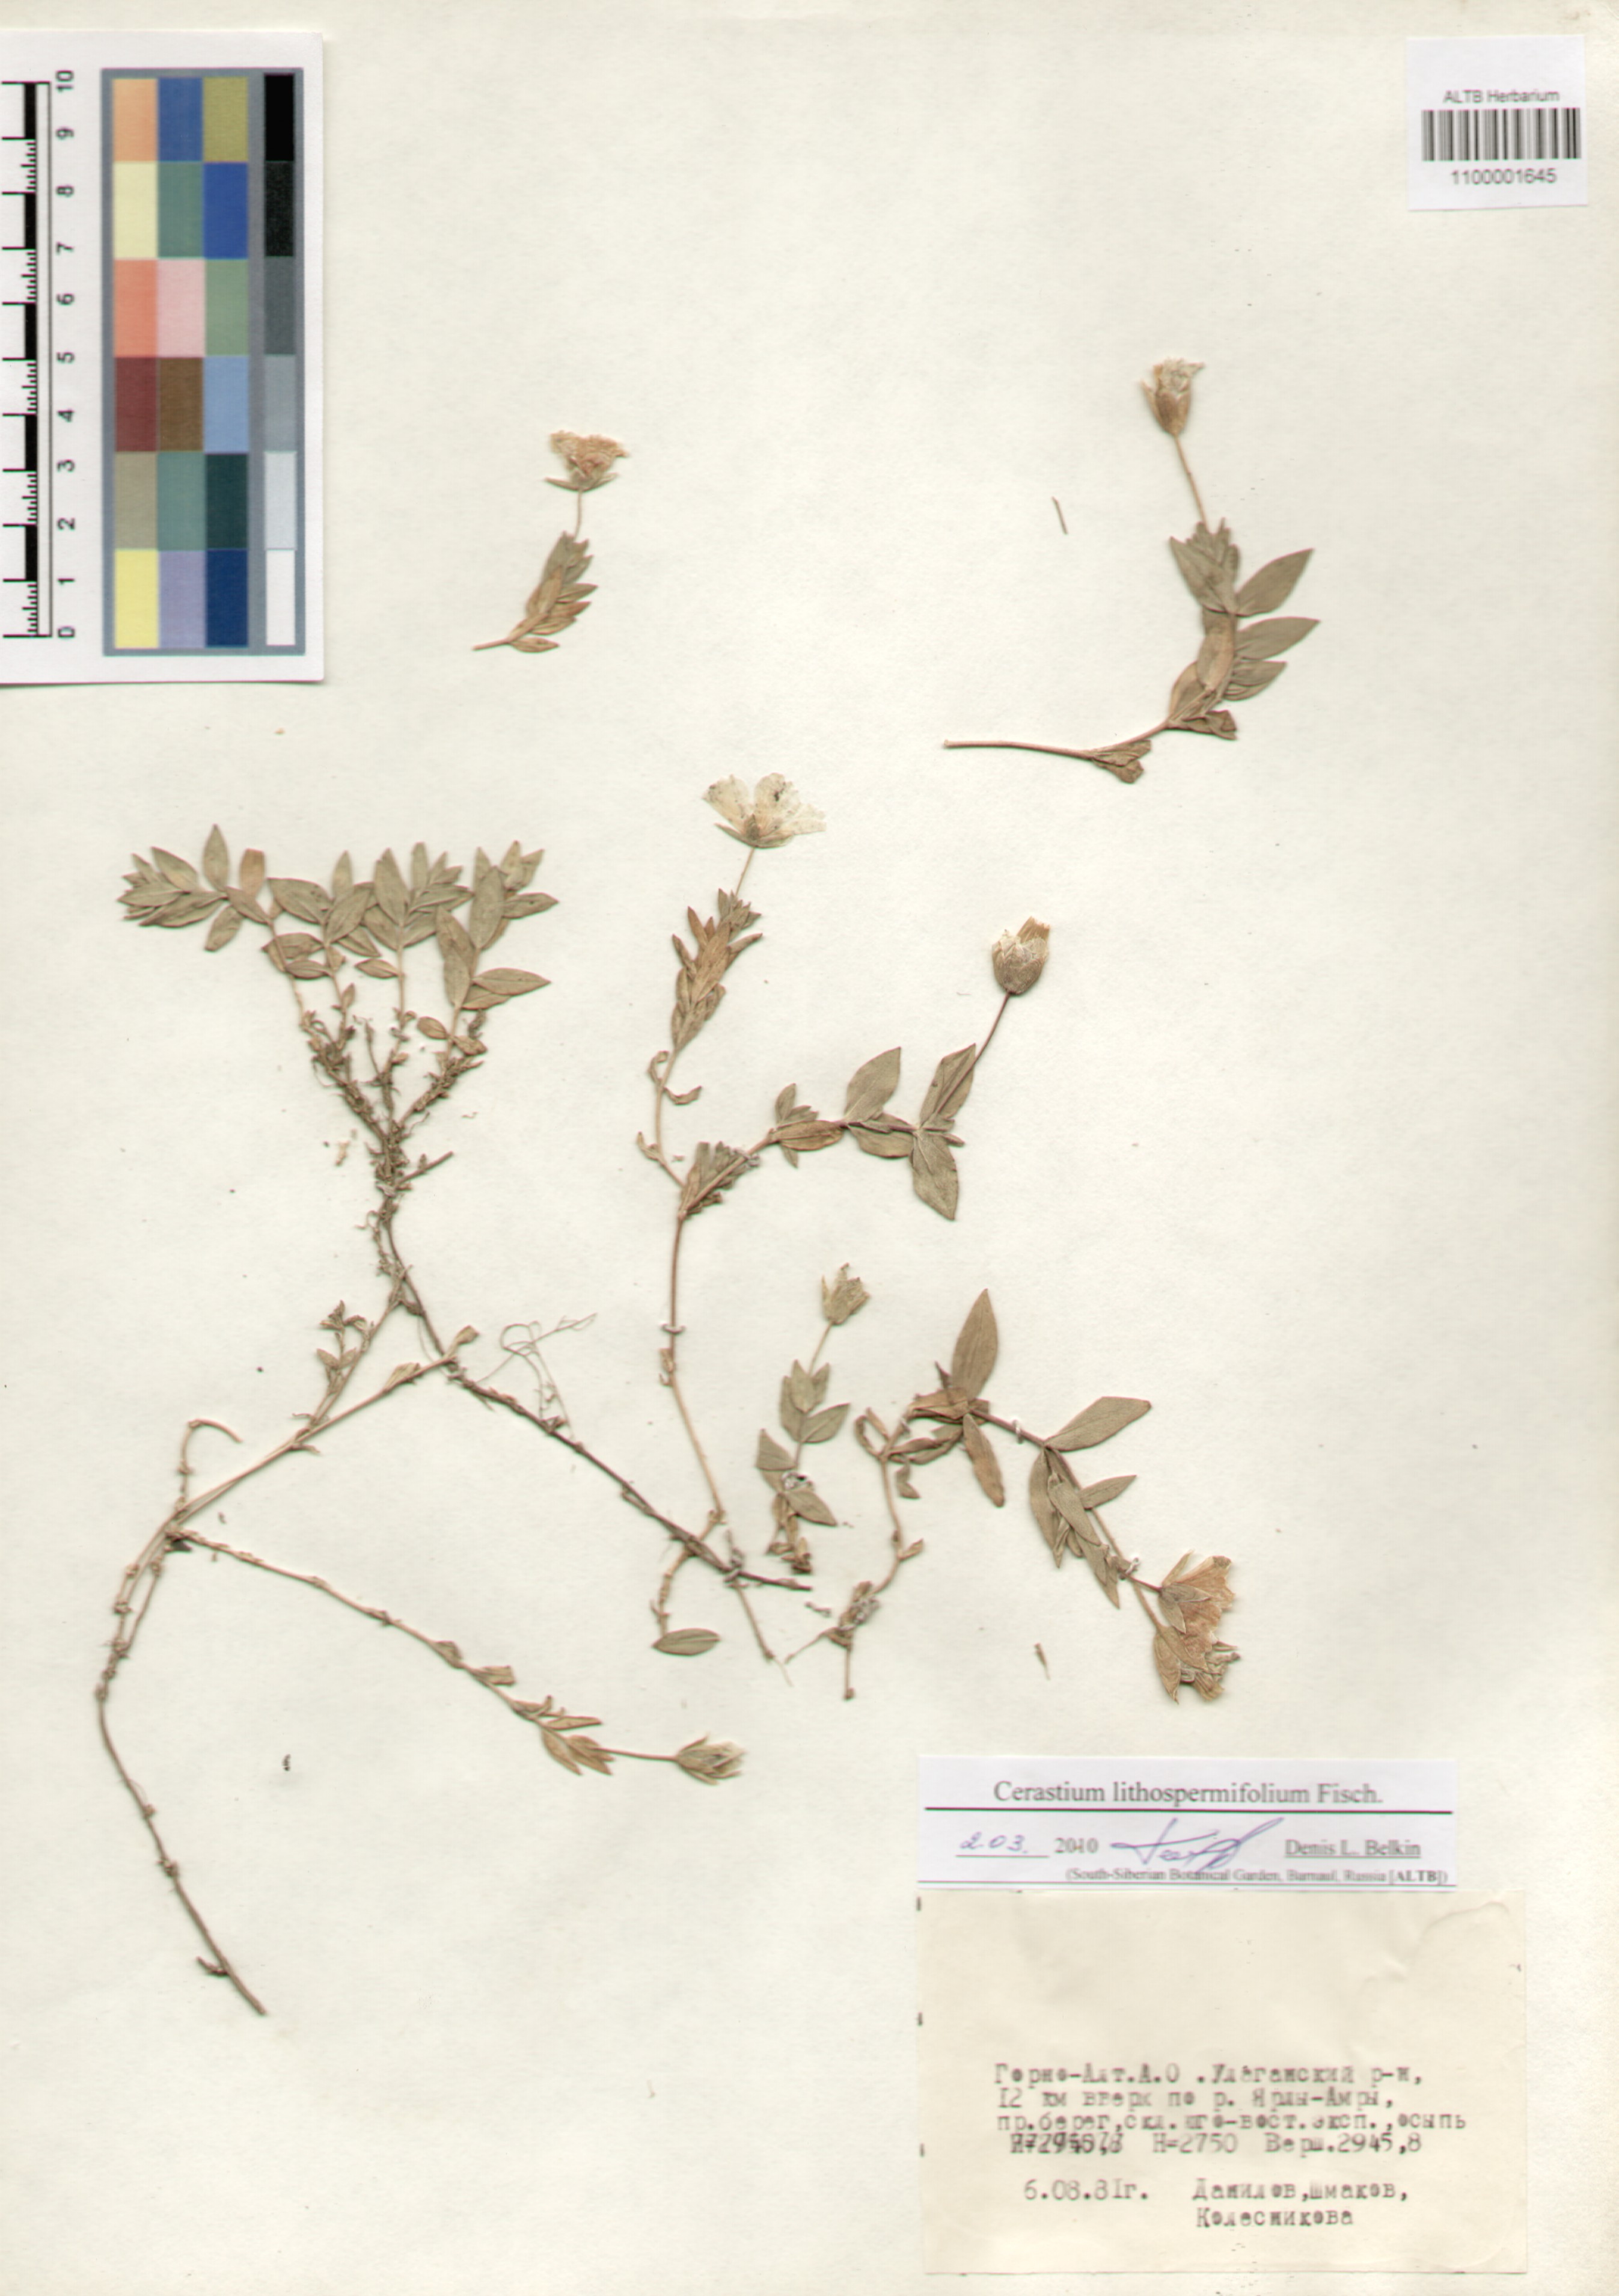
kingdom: Plantae
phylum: Tracheophyta
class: Magnoliopsida
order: Caryophyllales
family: Caryophyllaceae
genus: Cerastium
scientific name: Cerastium lithospermifolium
